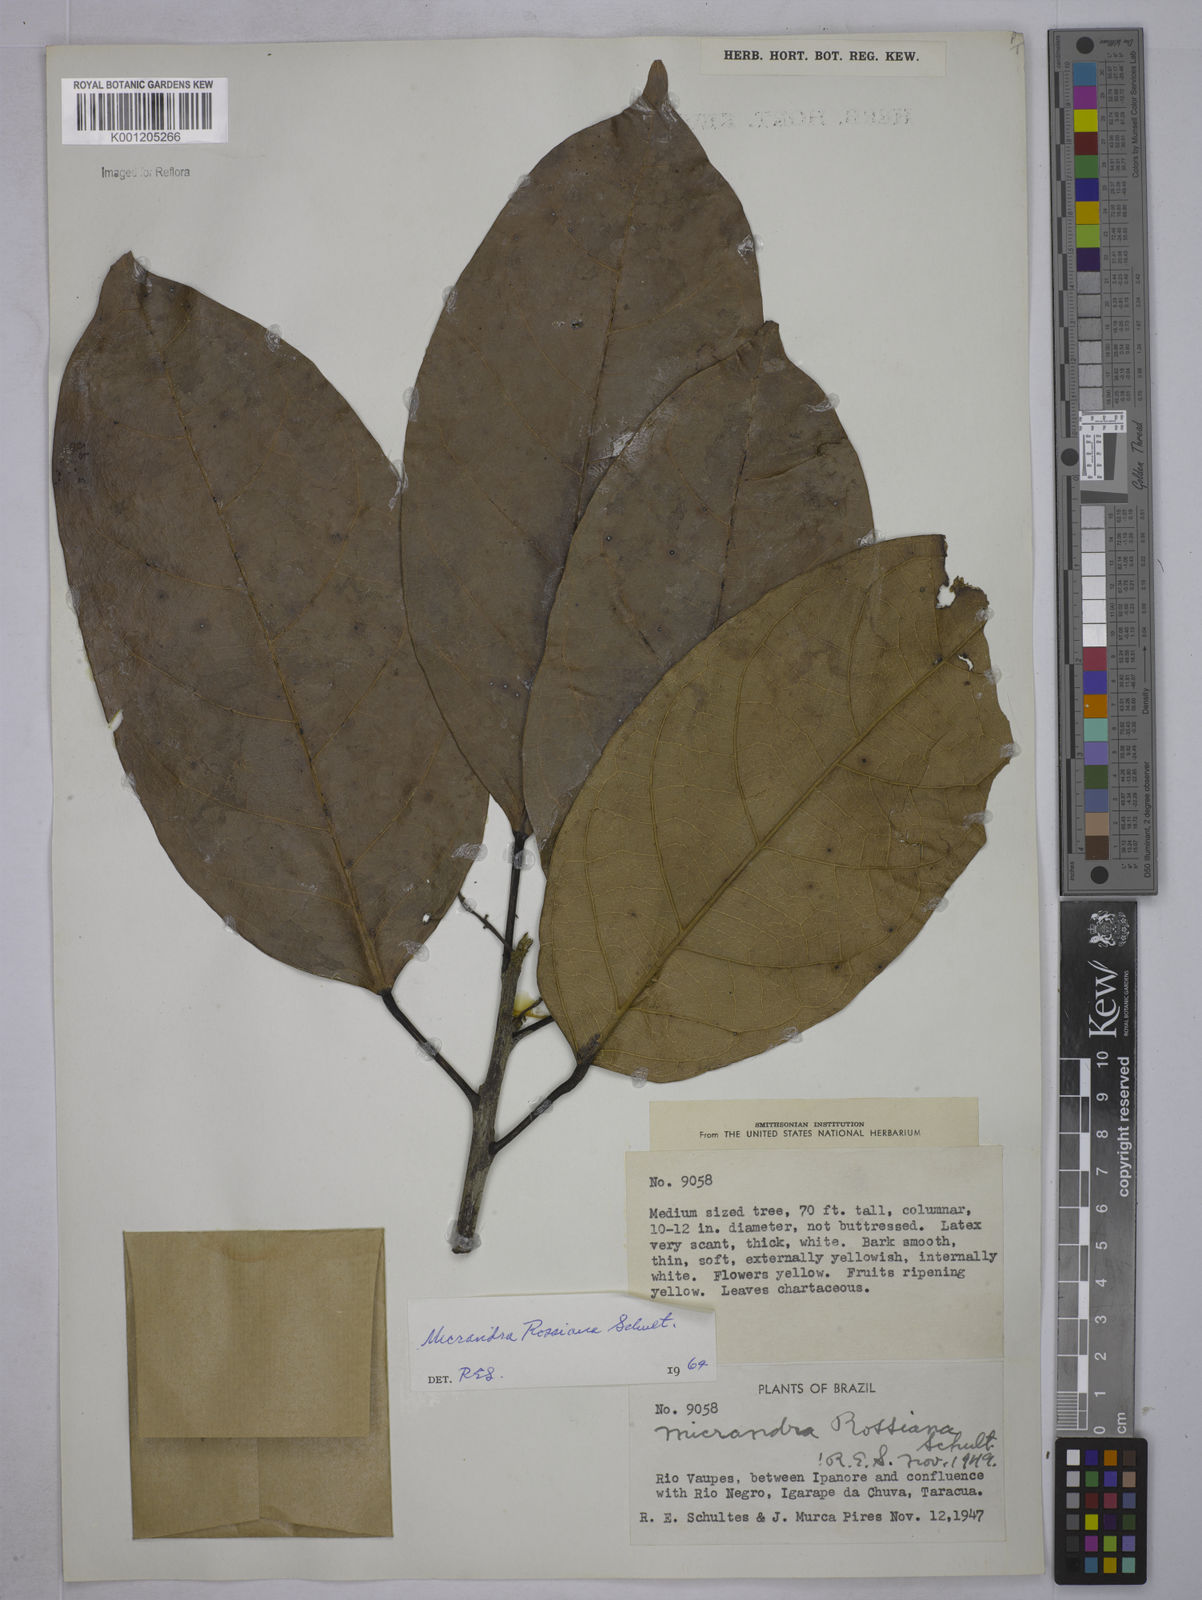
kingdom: Plantae
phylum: Tracheophyta
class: Magnoliopsida
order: Malpighiales
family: Euphorbiaceae
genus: Micrandra
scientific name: Micrandra rossiana
